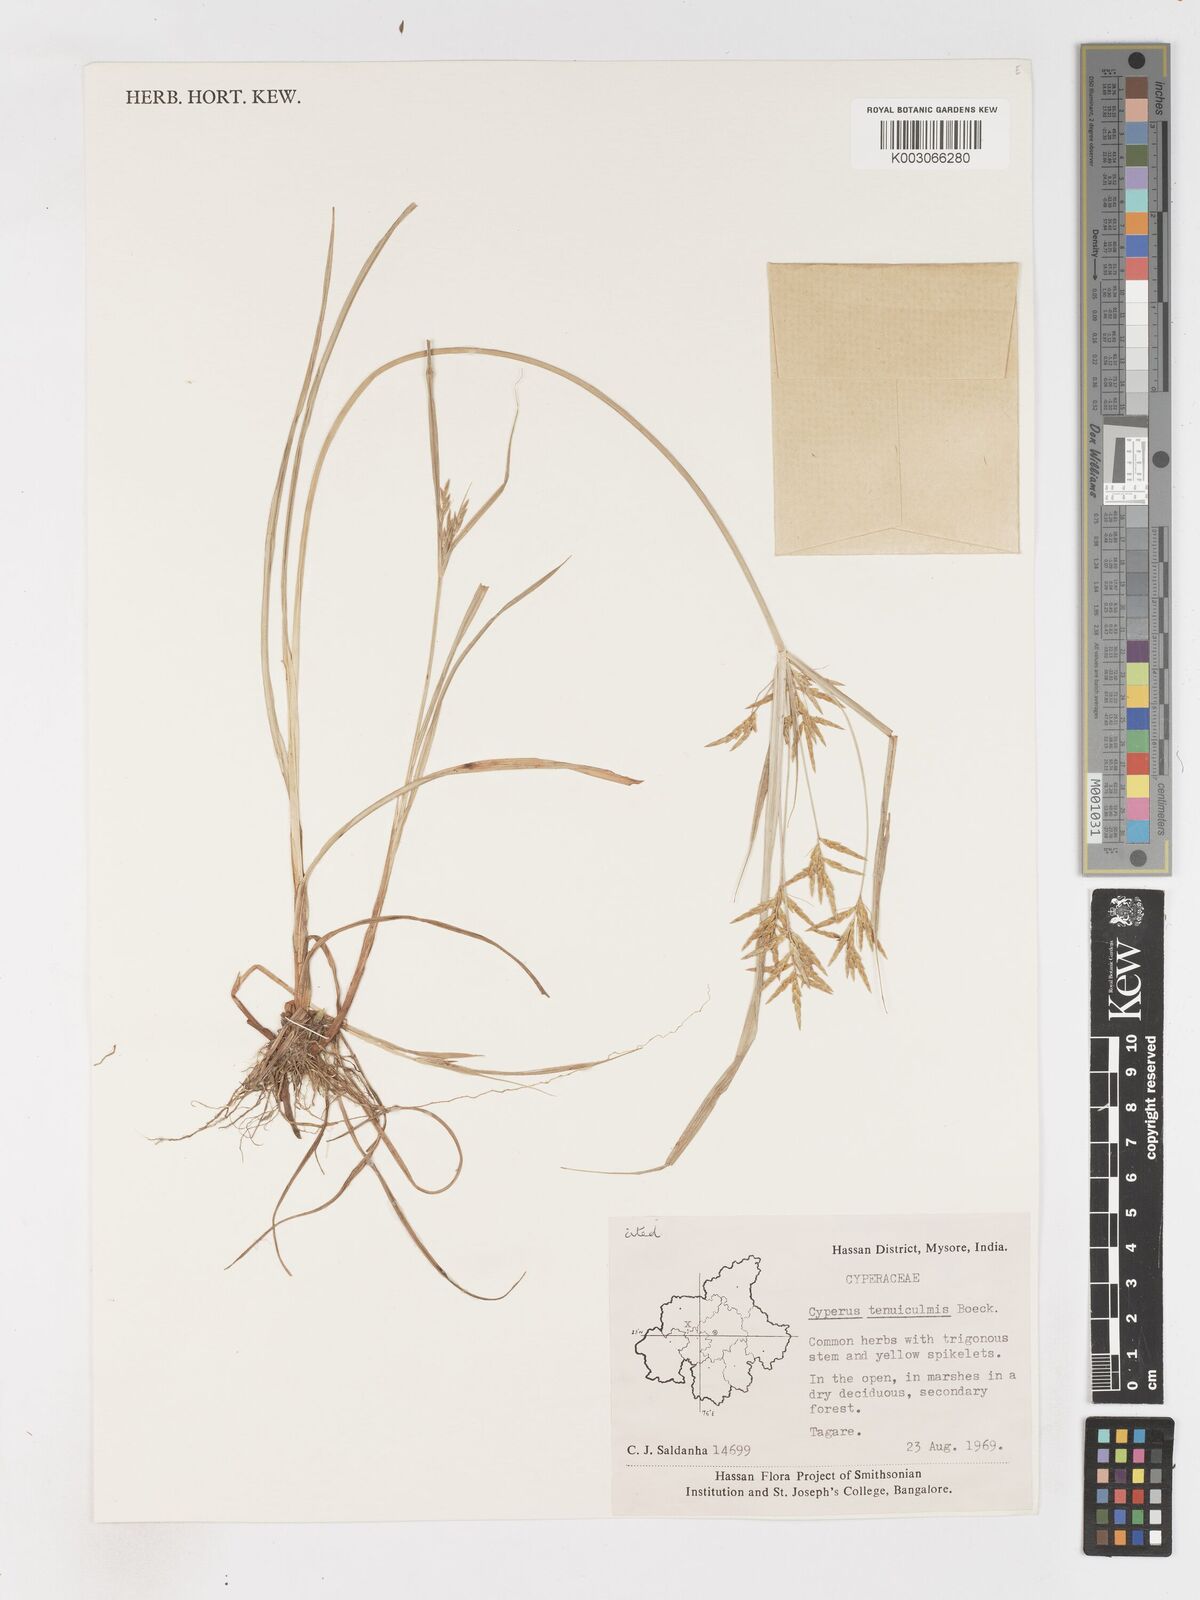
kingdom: Plantae
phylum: Tracheophyta
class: Liliopsida
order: Poales
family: Cyperaceae
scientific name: Cyperaceae
